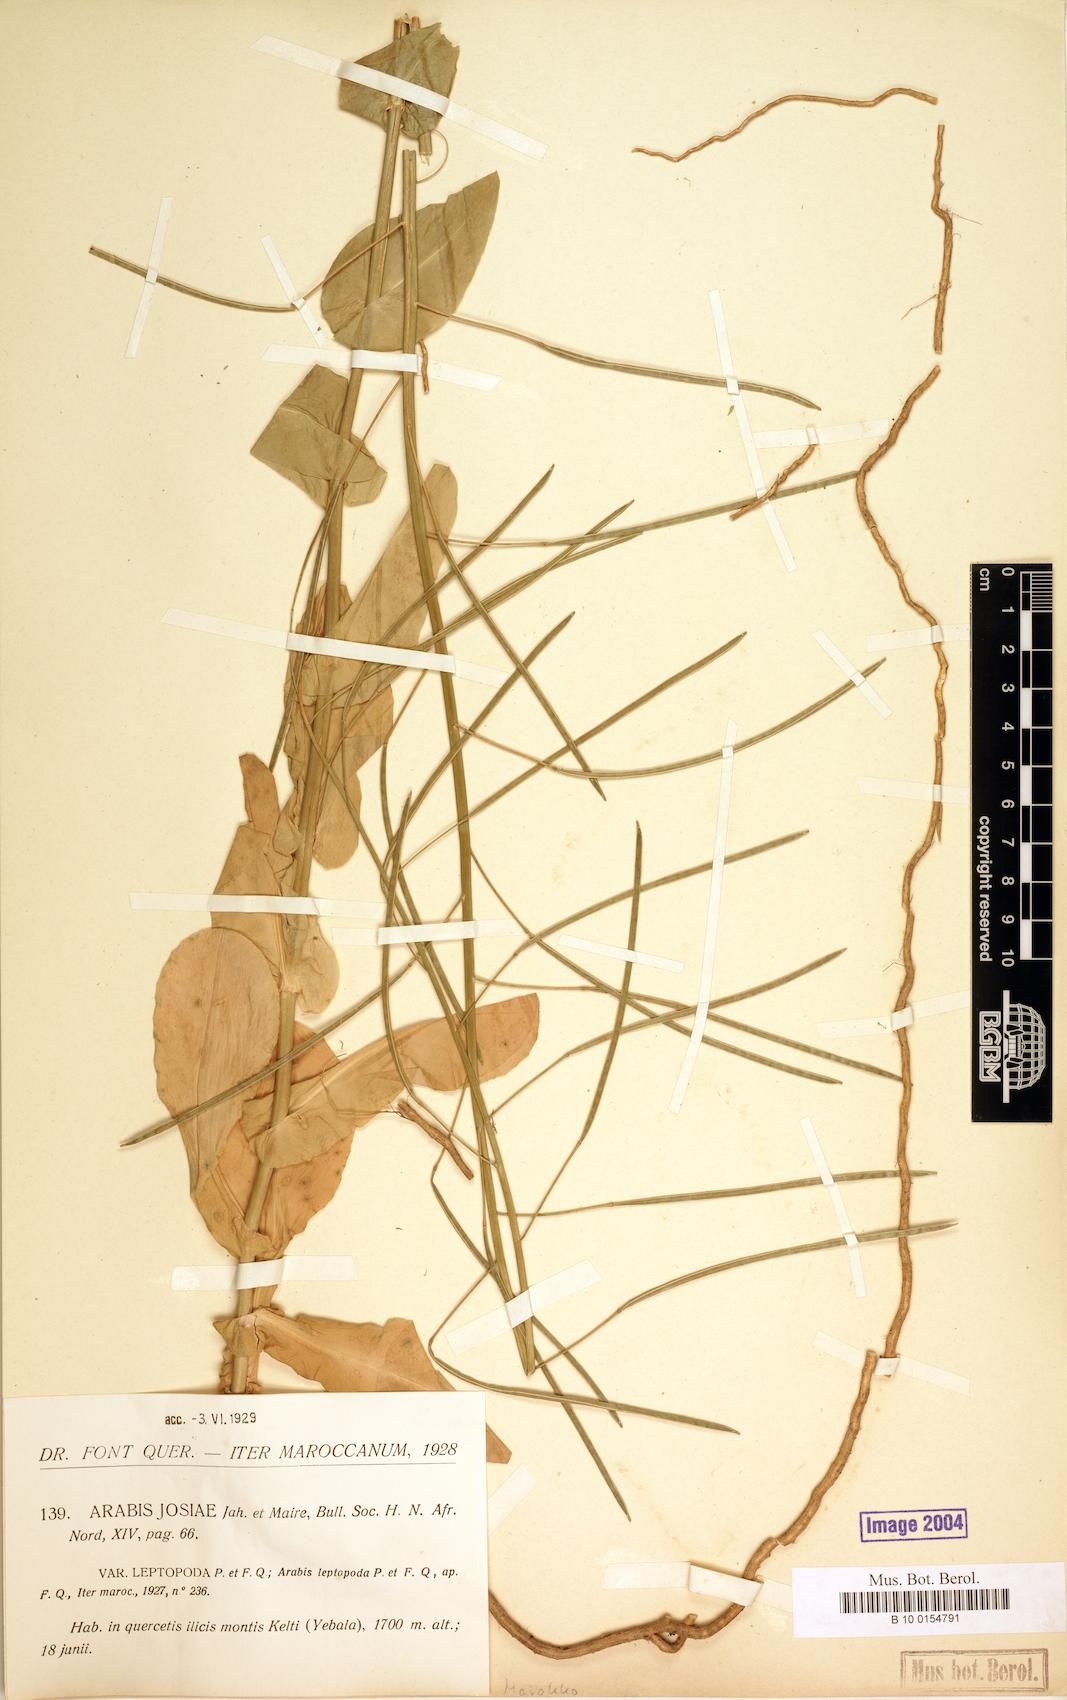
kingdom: Plantae
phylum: Tracheophyta
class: Magnoliopsida
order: Brassicales
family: Brassicaceae
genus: Arabis
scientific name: Arabis josiae
